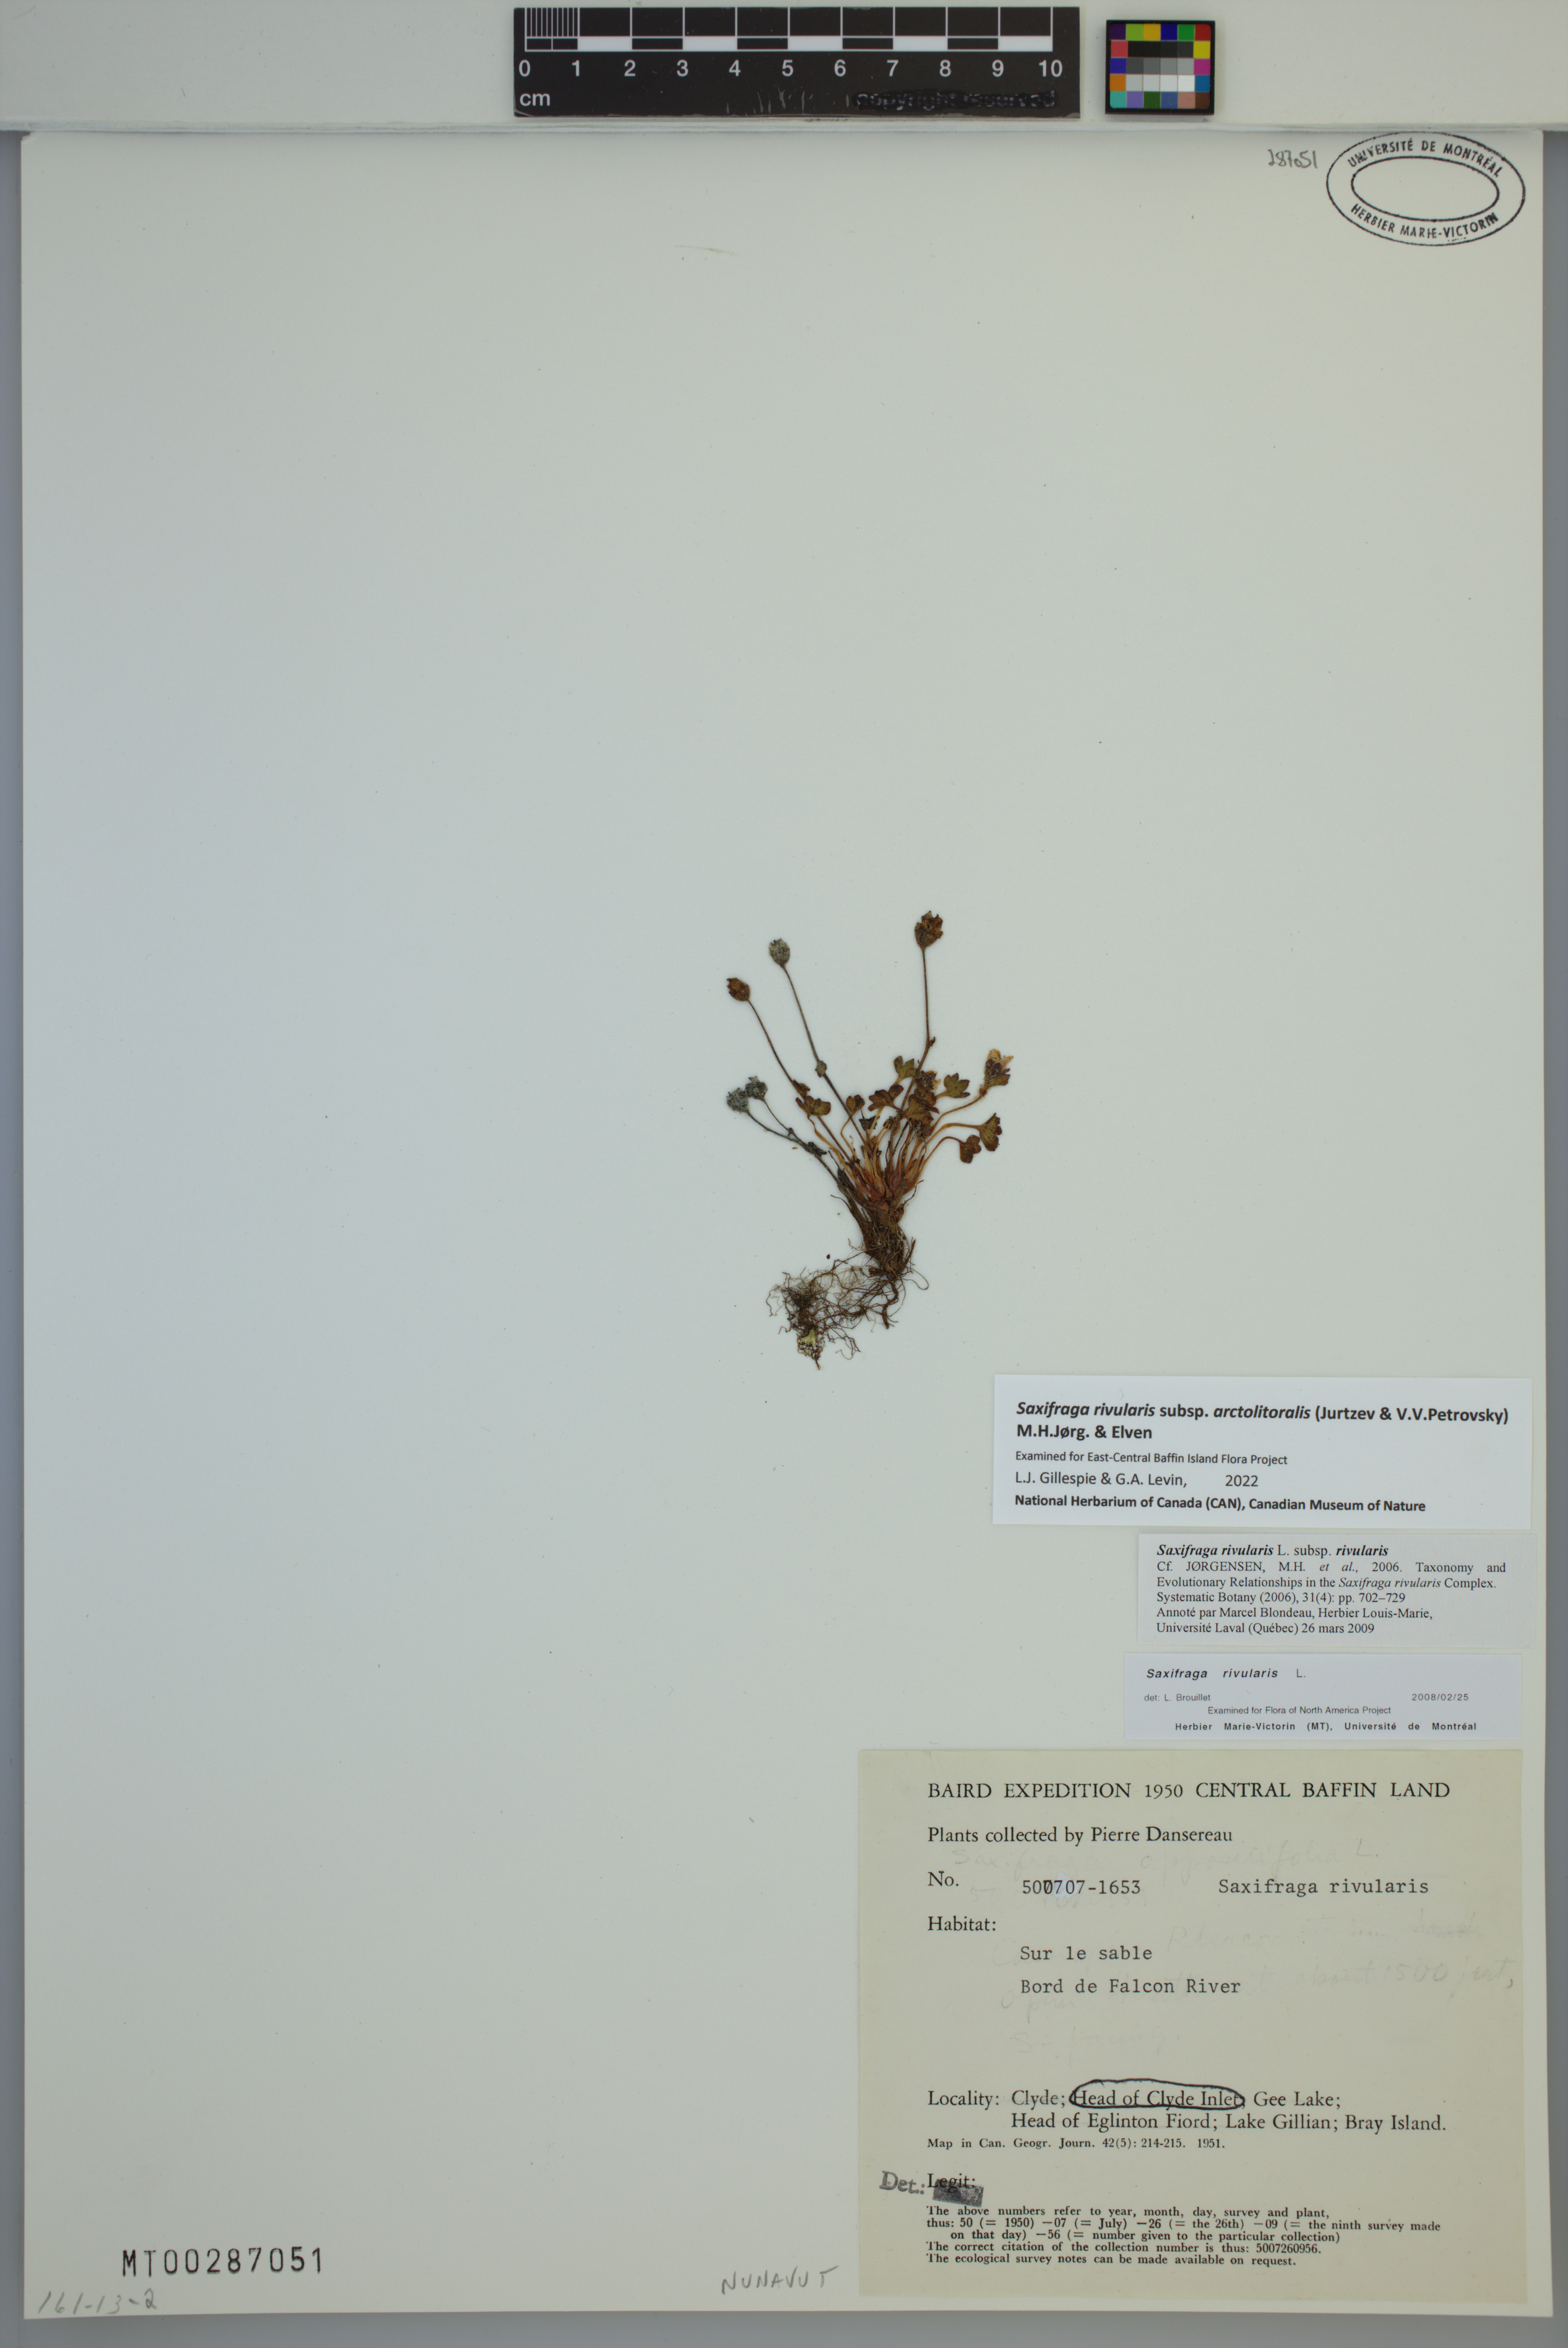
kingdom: Plantae
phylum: Tracheophyta
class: Magnoliopsida
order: Saxifragales
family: Saxifragaceae
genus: Saxifraga
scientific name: Saxifraga rivularis
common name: Highland saxifrage
